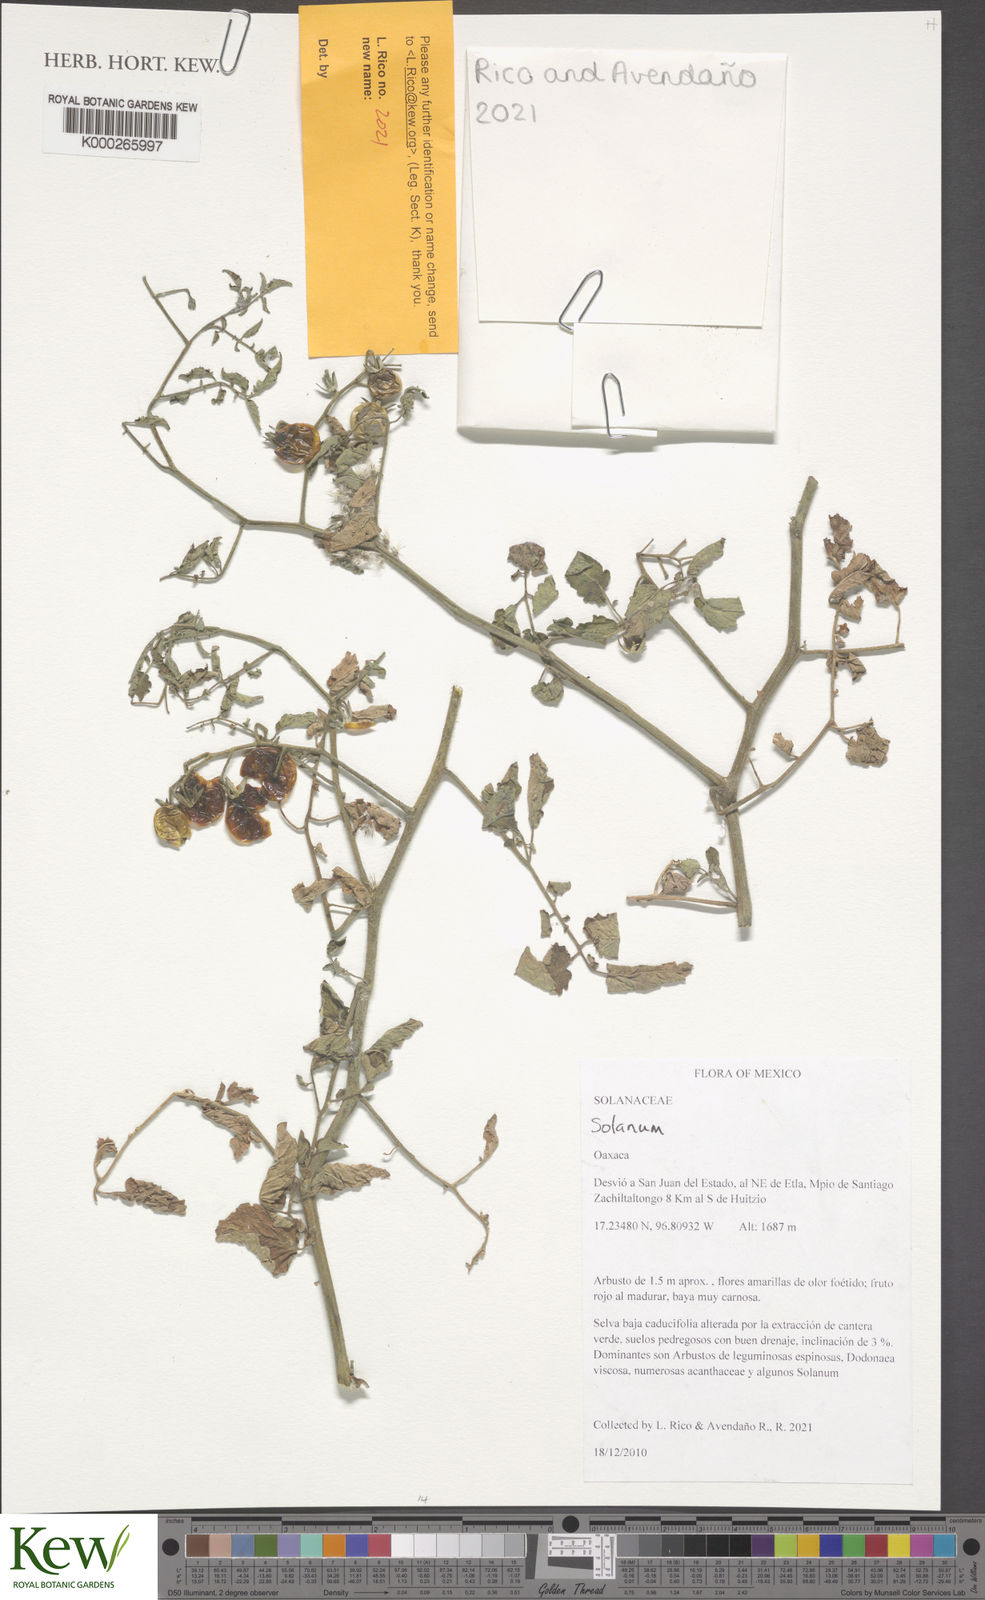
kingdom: Plantae
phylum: Tracheophyta
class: Magnoliopsida
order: Solanales
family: Solanaceae
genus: Solanum
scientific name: Solanum
